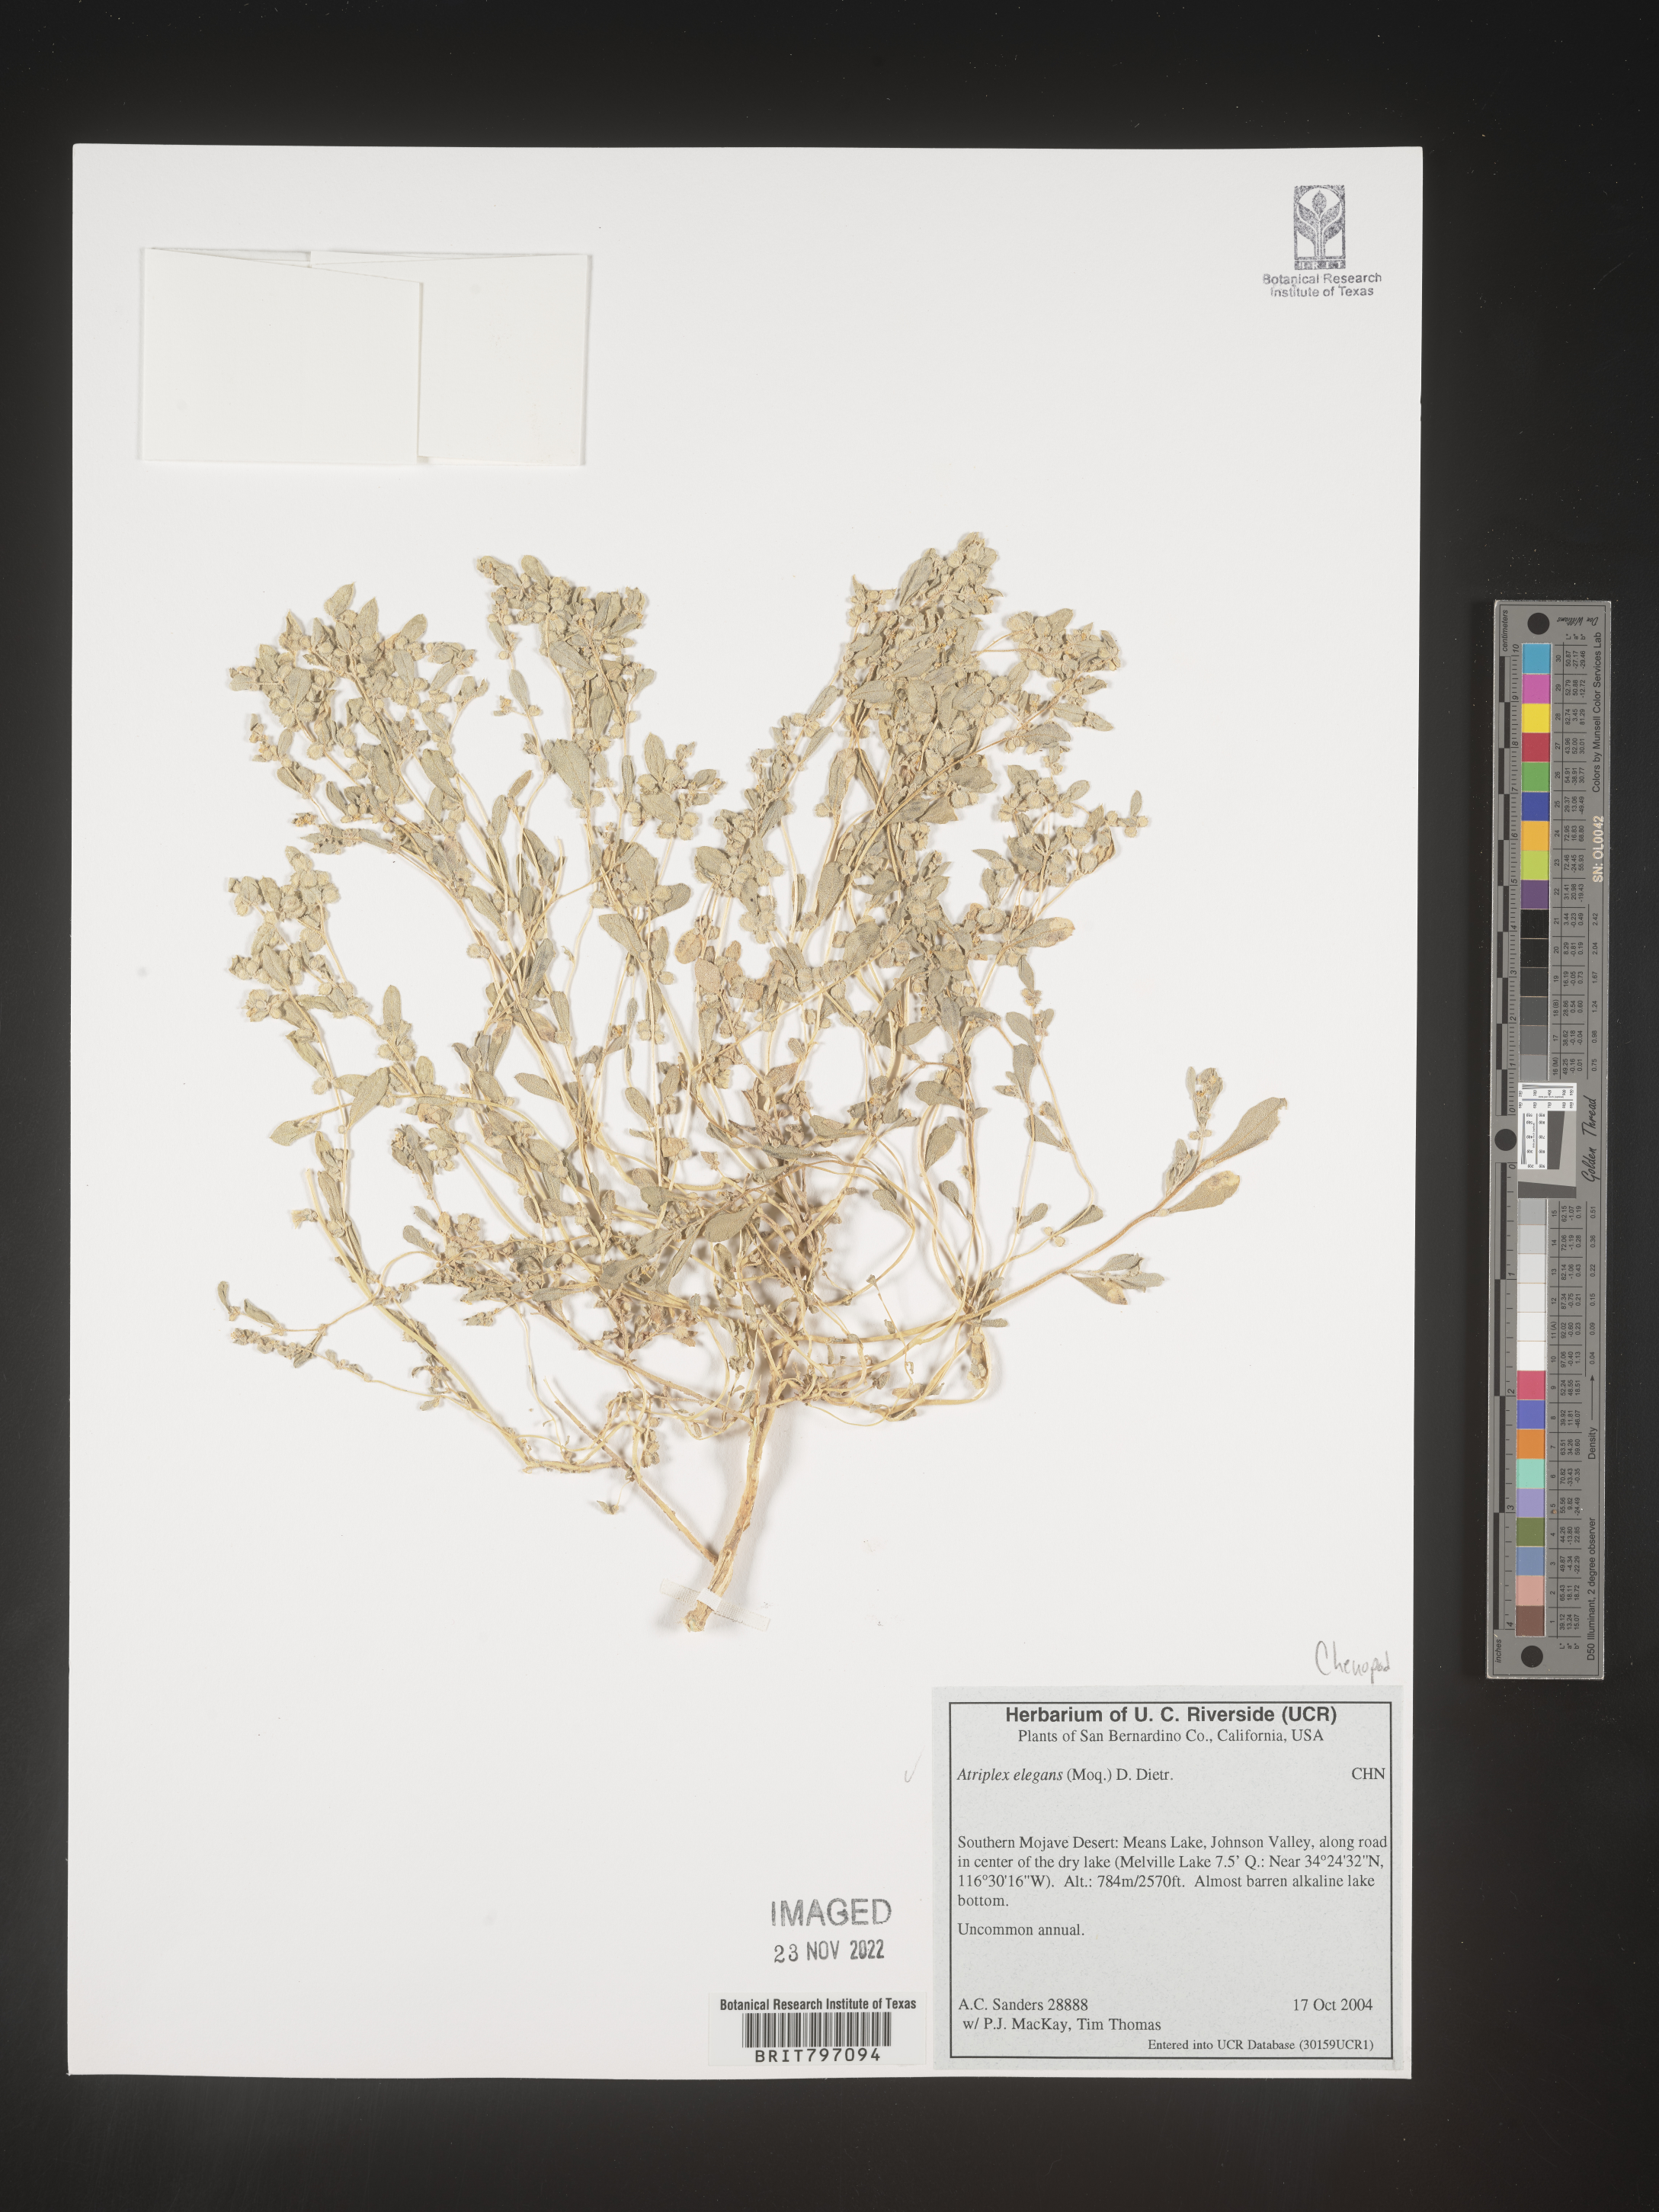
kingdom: Plantae
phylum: Tracheophyta
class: Magnoliopsida
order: Caryophyllales
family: Amaranthaceae
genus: Atriplex
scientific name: Atriplex
